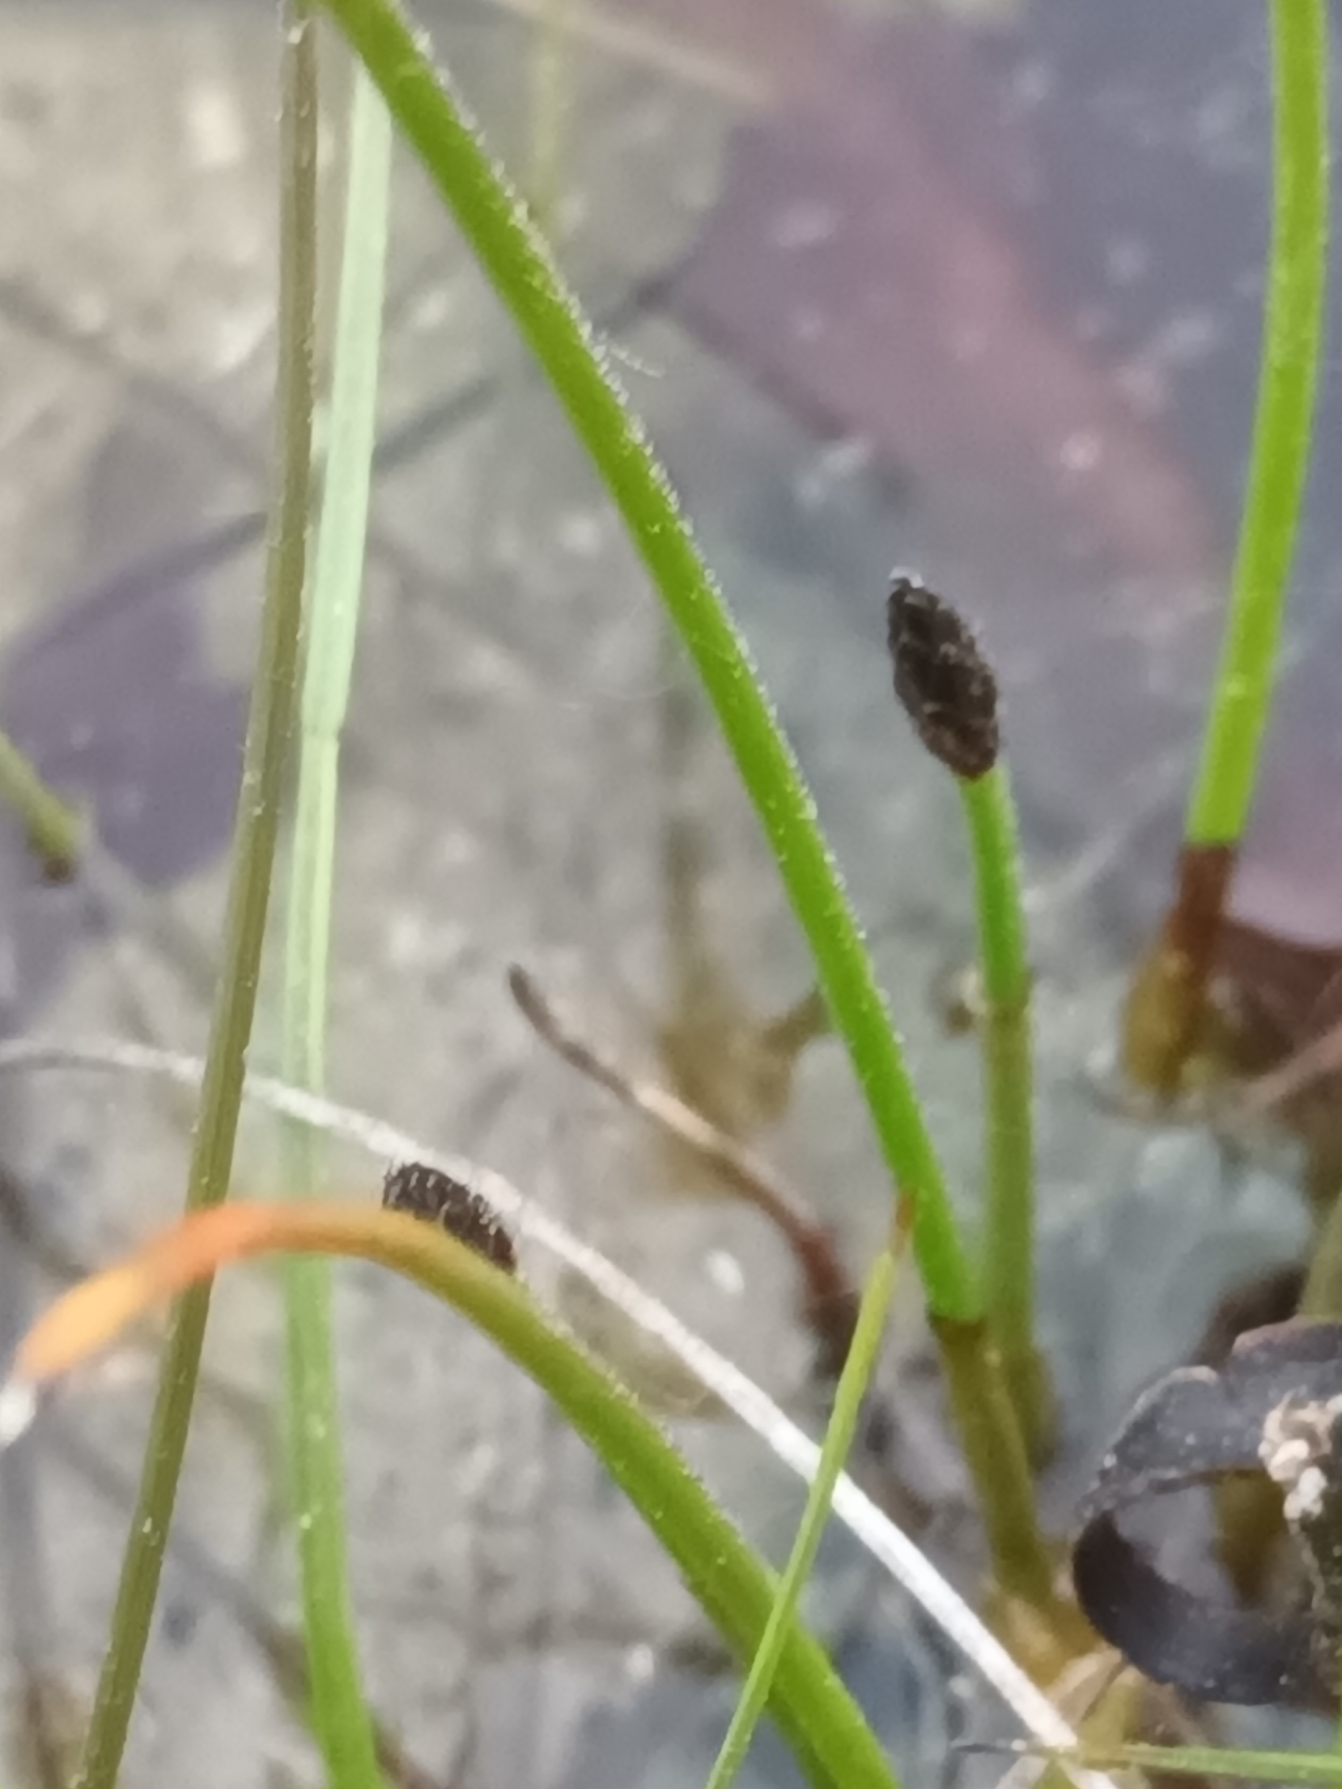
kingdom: Plantae
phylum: Tracheophyta
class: Liliopsida
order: Poales
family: Cyperaceae
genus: Eleocharis
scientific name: Eleocharis uniglumis
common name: Enskællet sumpstrå
